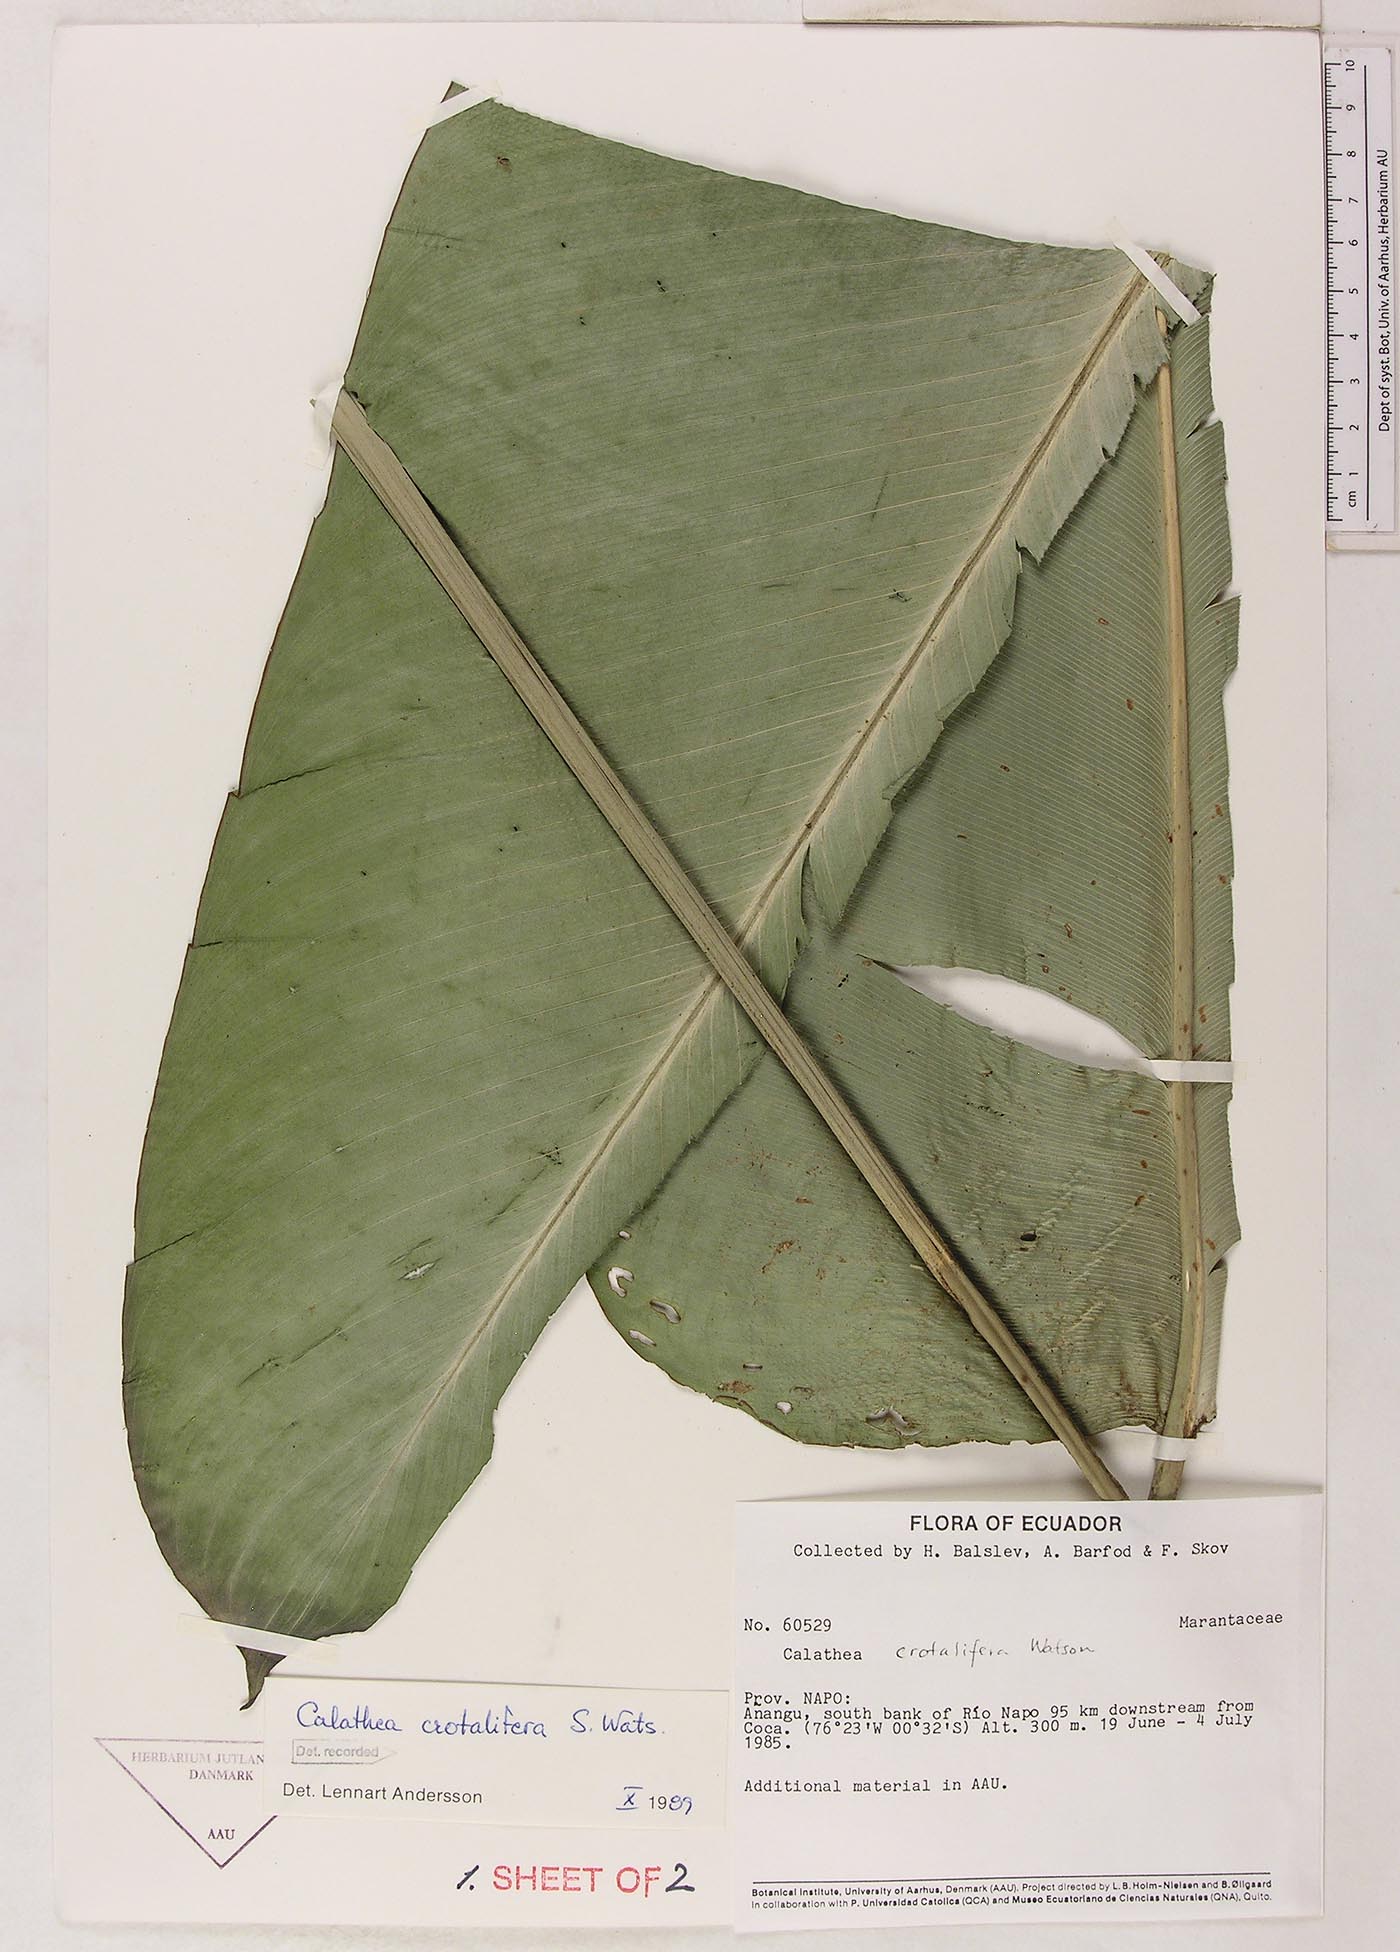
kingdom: Plantae
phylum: Tracheophyta
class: Liliopsida
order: Zingiberales
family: Marantaceae
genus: Calathea
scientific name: Calathea crotalifera
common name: Rattlesnake plant
